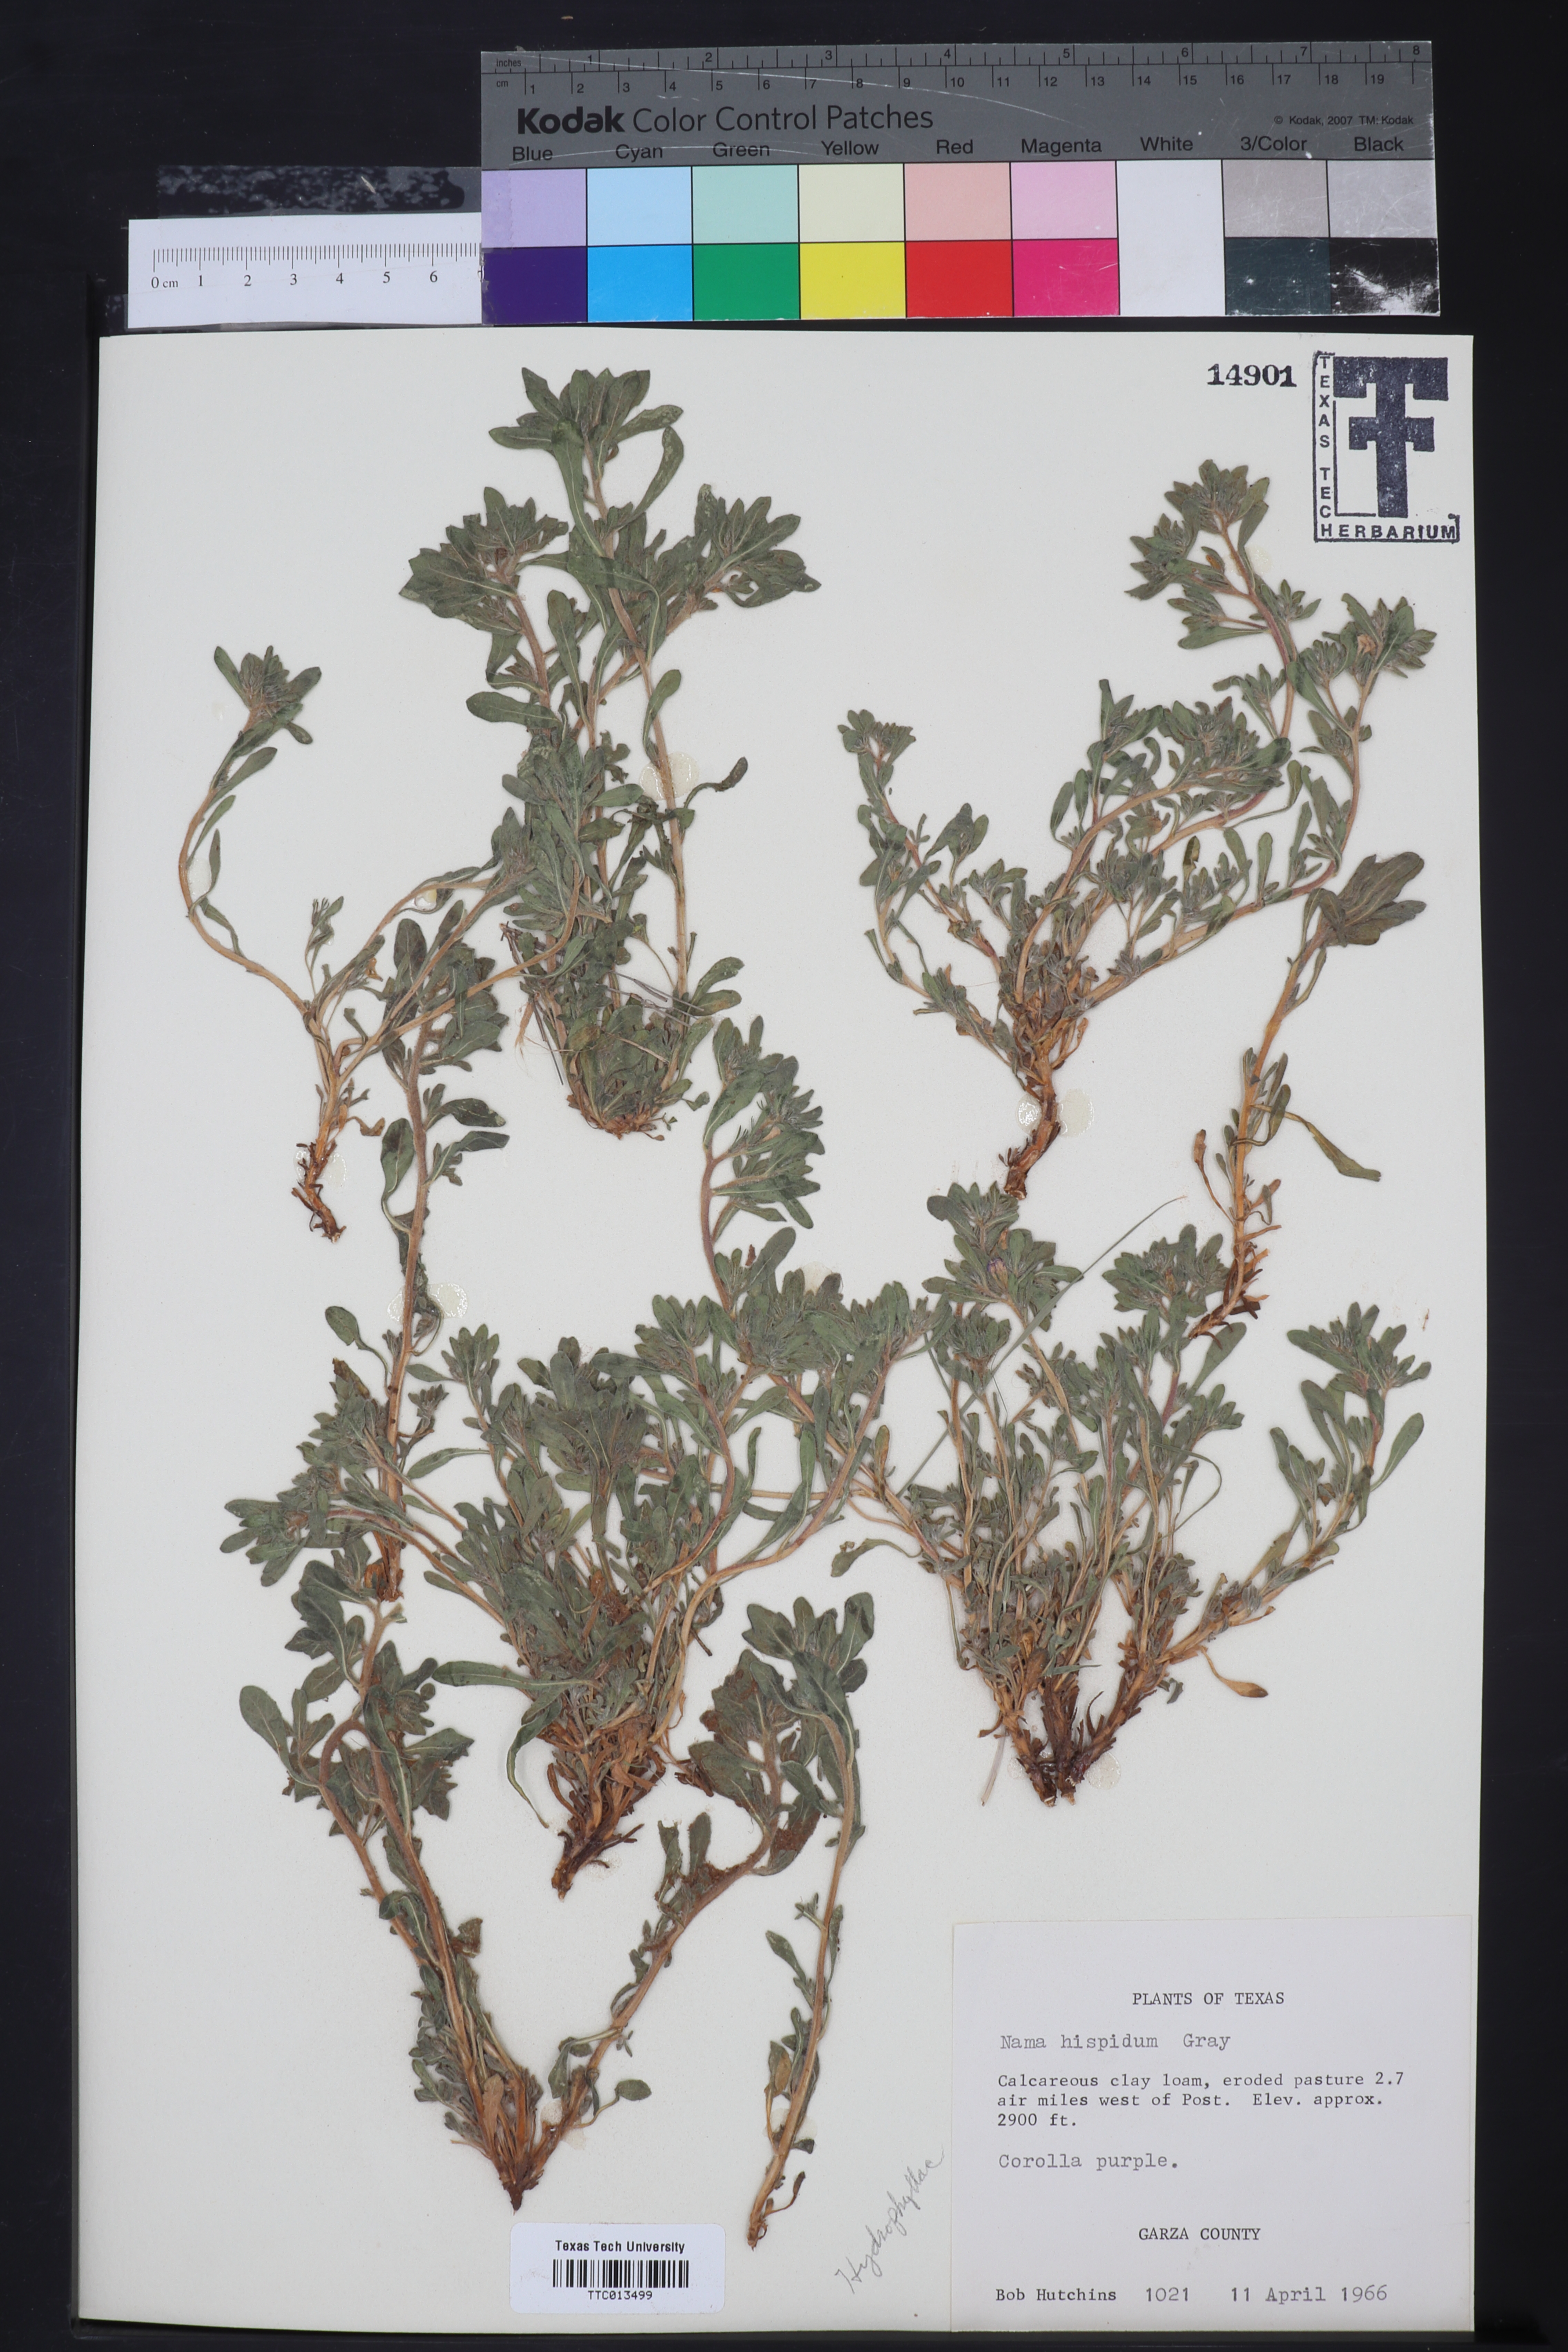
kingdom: Plantae
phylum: Tracheophyta
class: Magnoliopsida
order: Boraginales
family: Namaceae
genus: Nama
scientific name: Nama hispida
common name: Bristly nama
